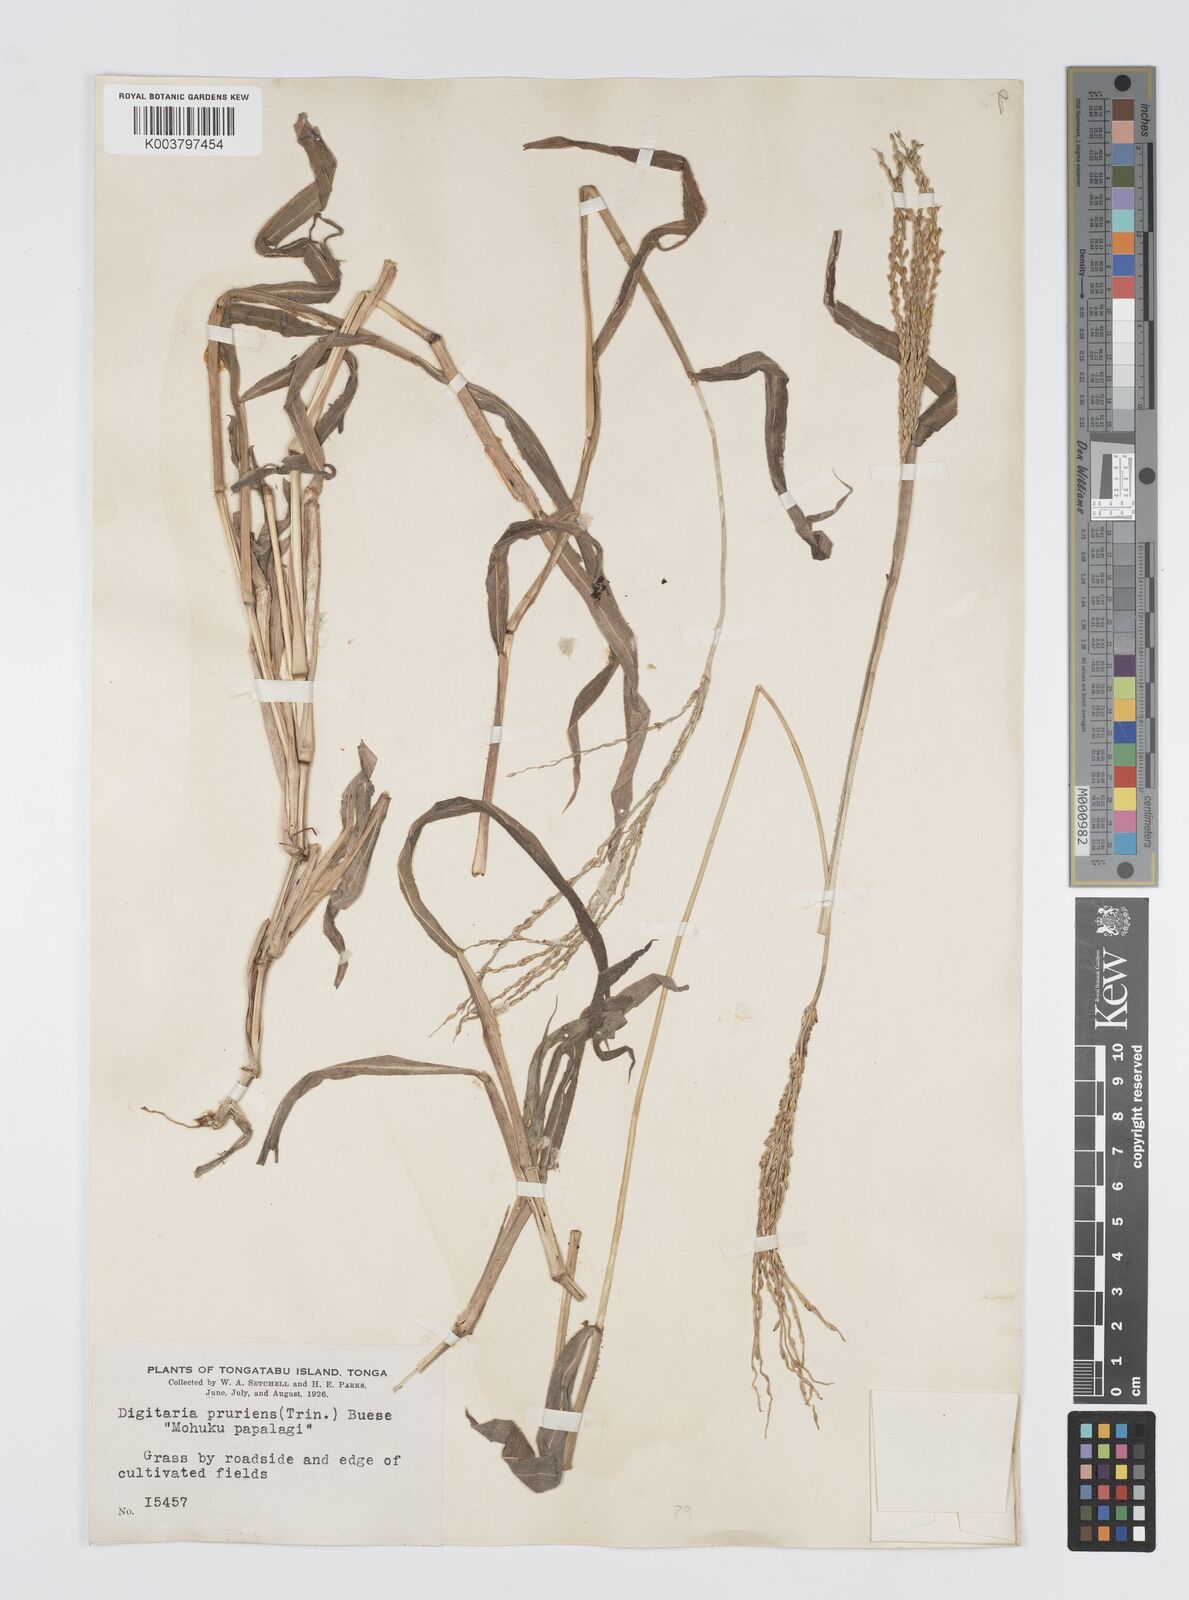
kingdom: Plantae
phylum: Tracheophyta
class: Liliopsida
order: Poales
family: Poaceae
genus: Digitaria
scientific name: Digitaria setigera
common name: East indian crabgrass
